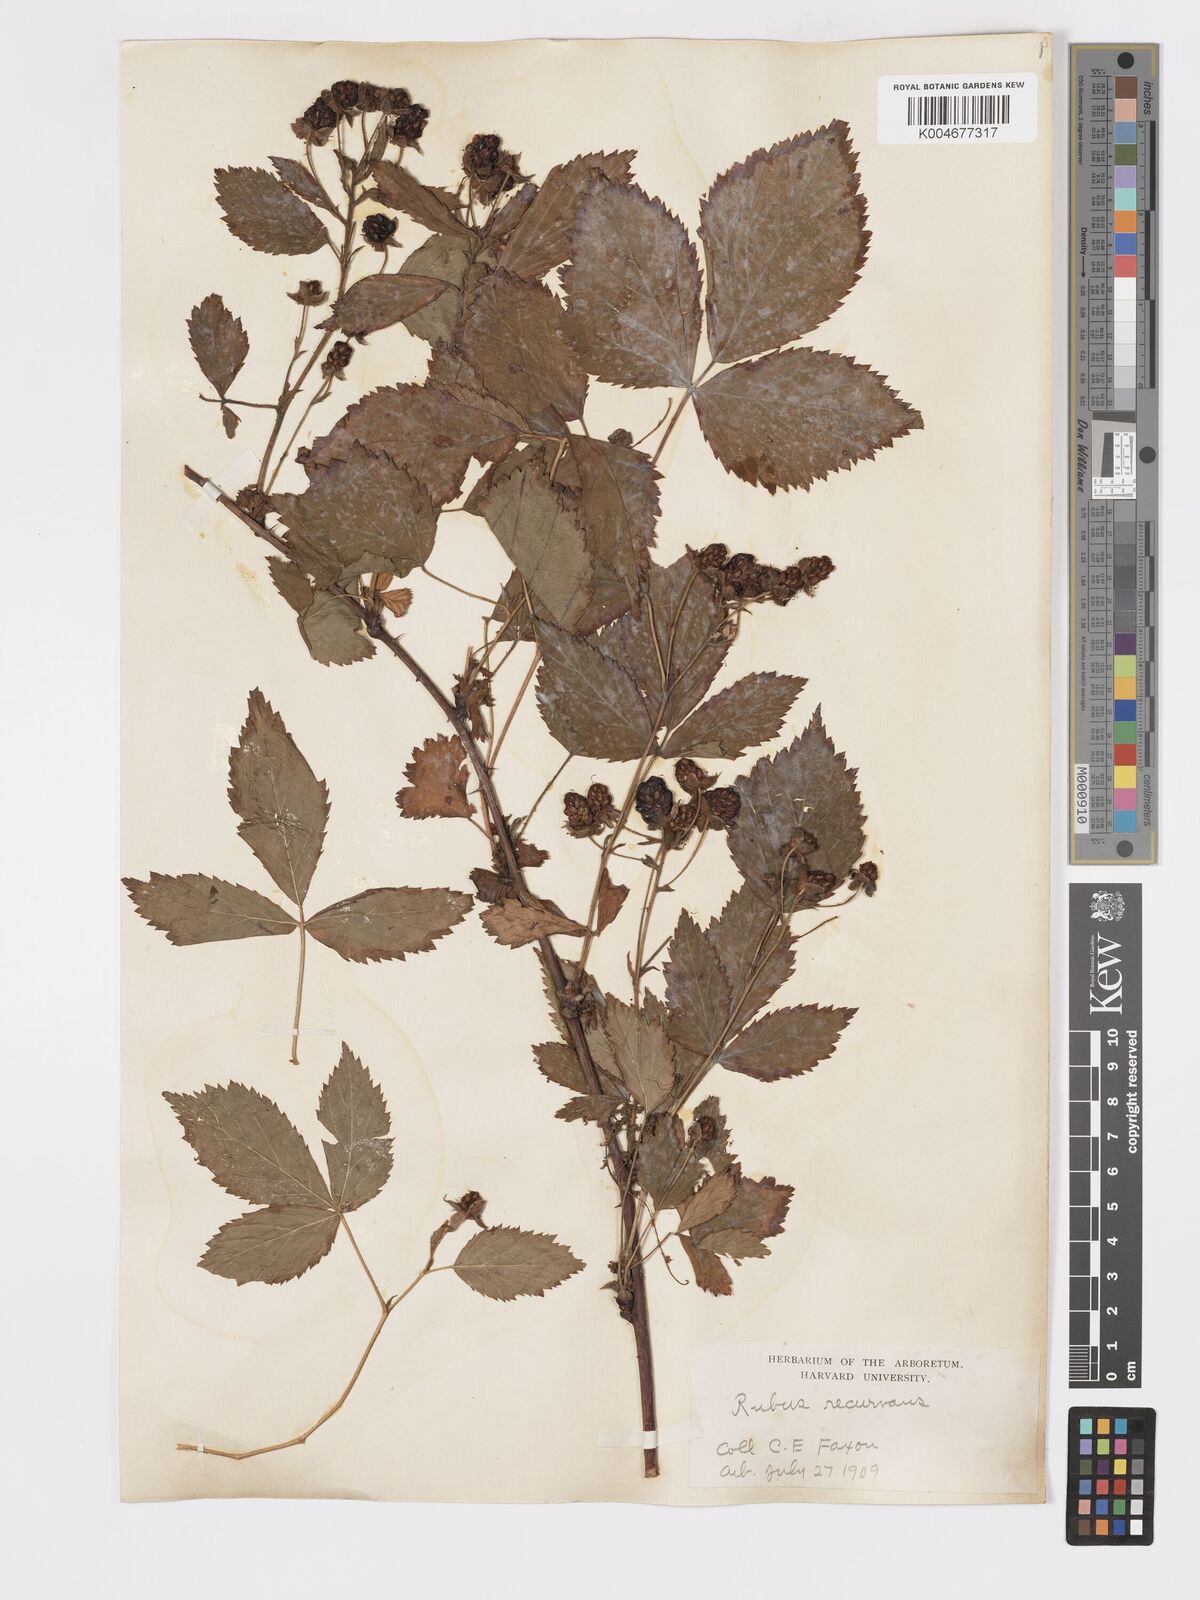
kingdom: Plantae
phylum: Tracheophyta
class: Magnoliopsida
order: Rosales
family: Rosaceae
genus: Rubus
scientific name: Rubus recurvans
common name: Recurved blackberry
